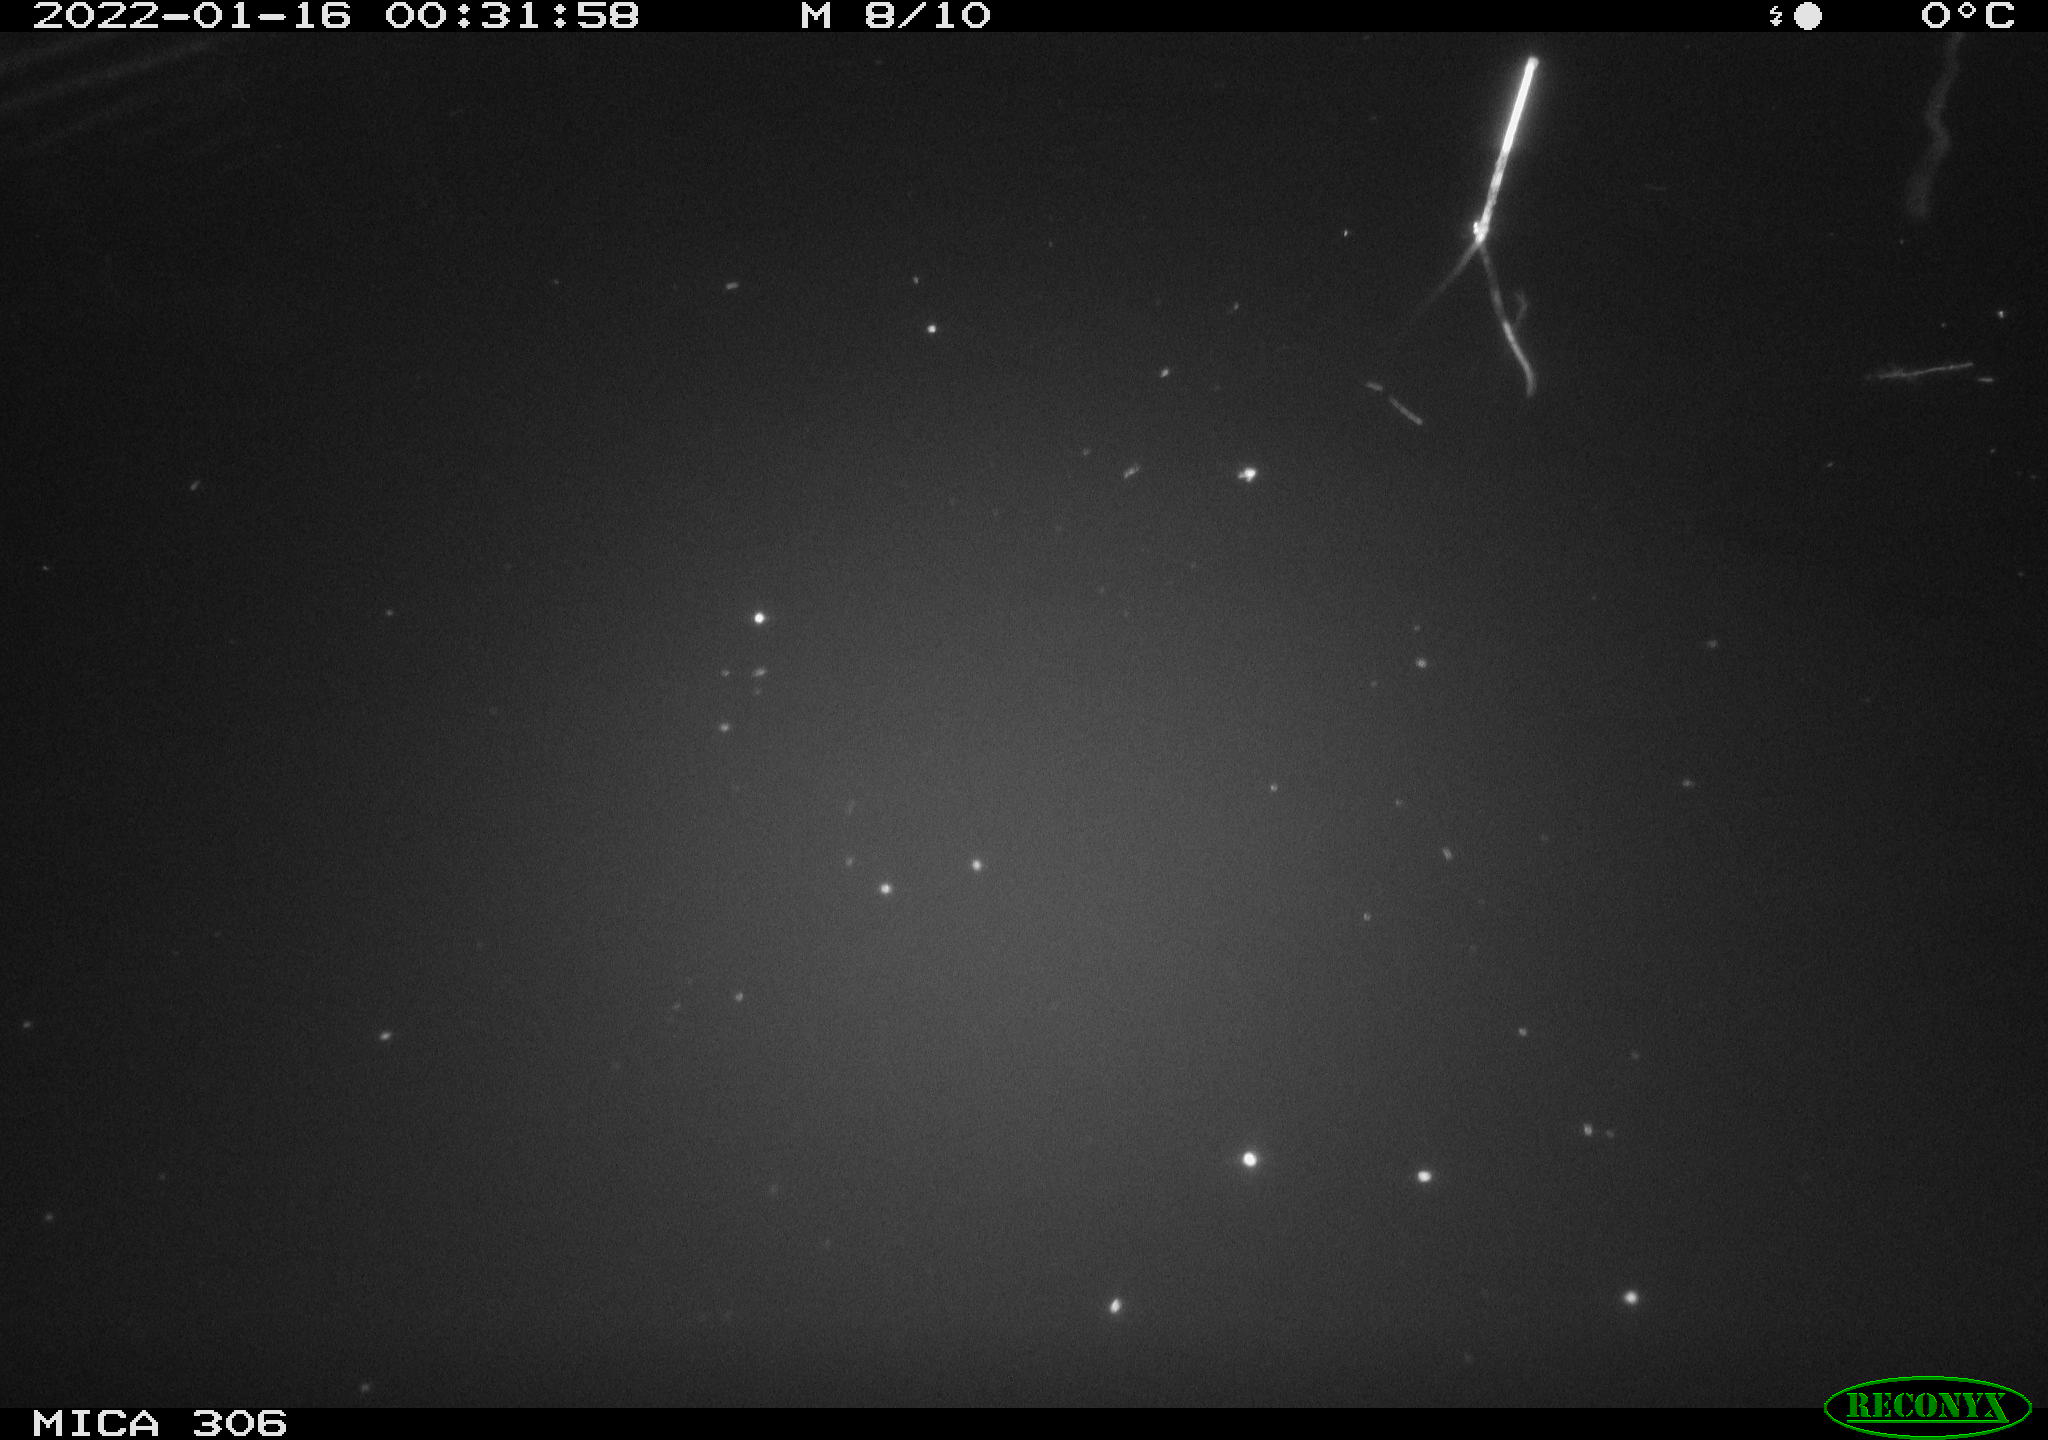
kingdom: Animalia
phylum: Chordata
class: Mammalia
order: Rodentia
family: Cricetidae
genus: Ondatra
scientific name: Ondatra zibethicus
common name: Muskrat
